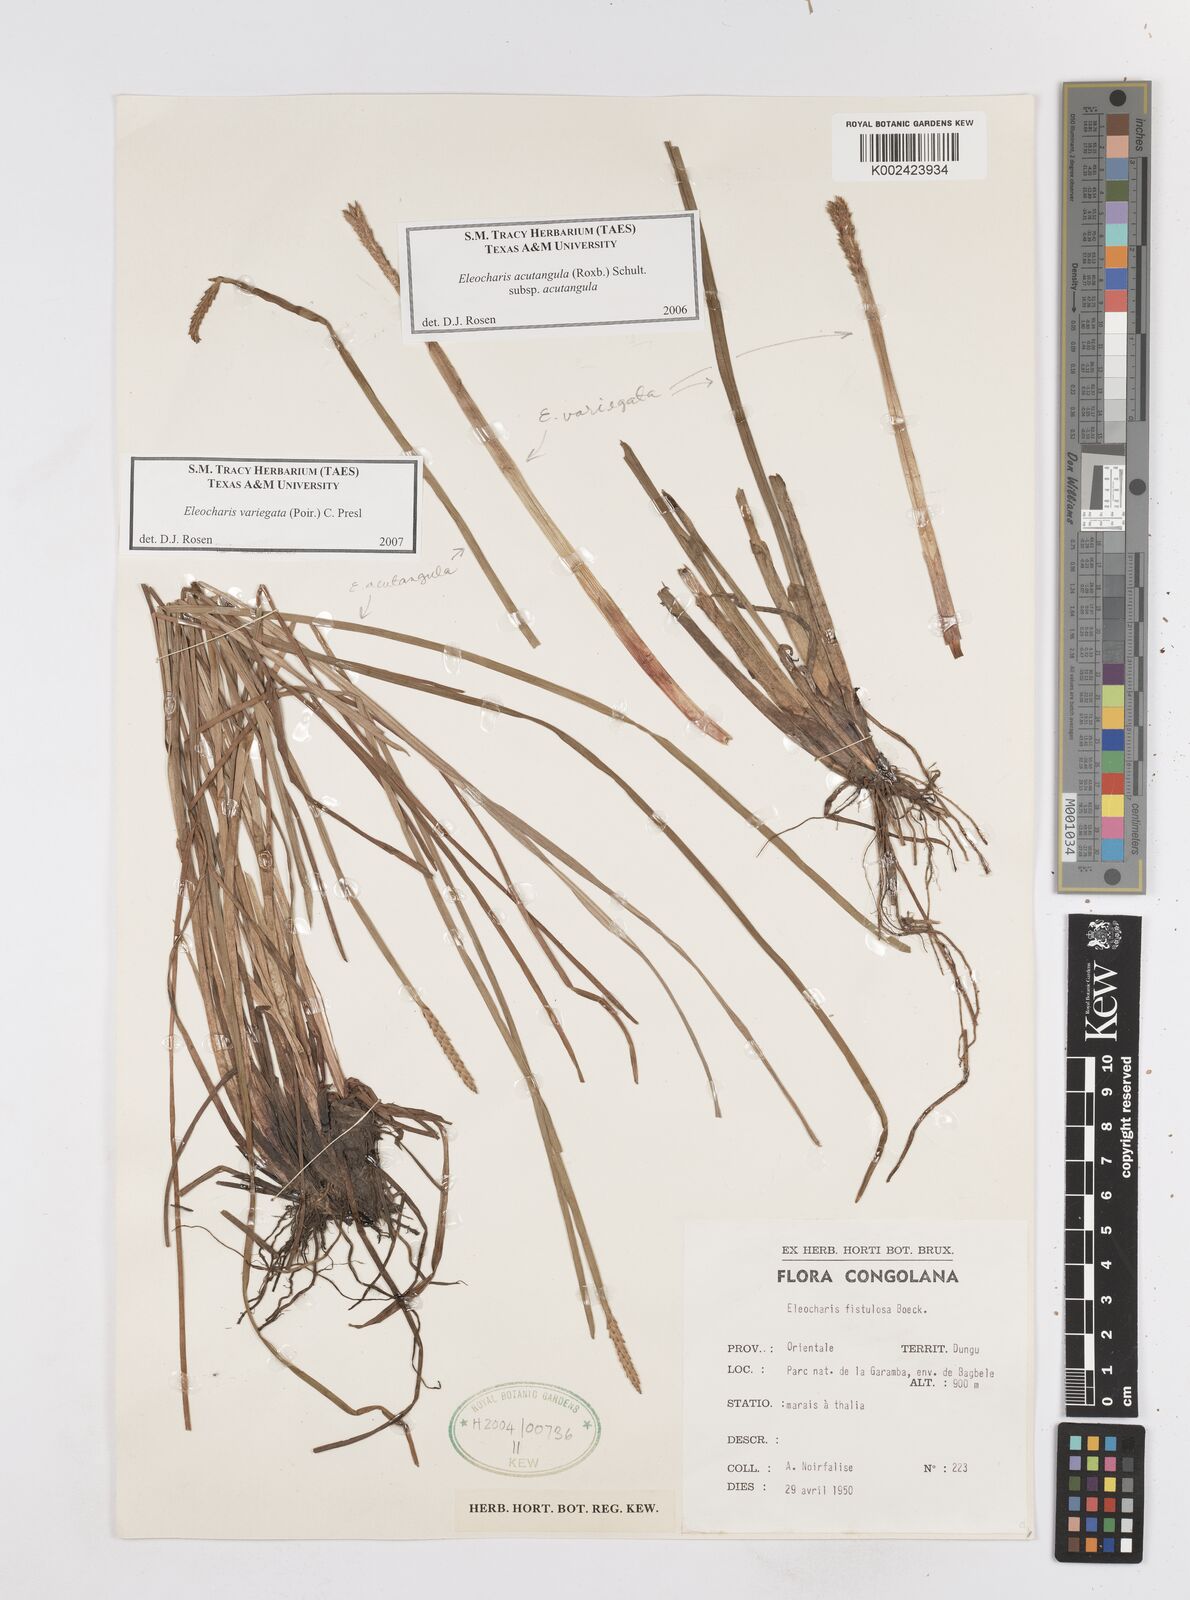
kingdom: Plantae
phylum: Tracheophyta
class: Liliopsida
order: Poales
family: Cyperaceae
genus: Eleocharis
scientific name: Eleocharis acutangula
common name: Acute spikerush
